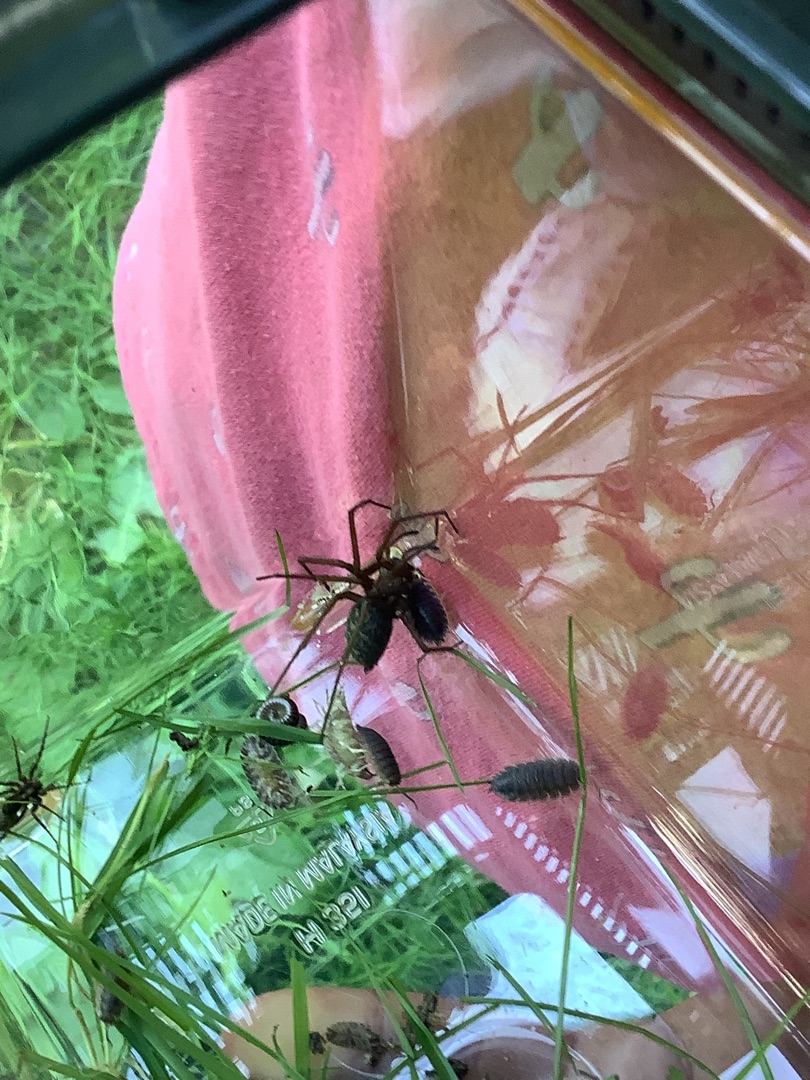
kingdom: Animalia
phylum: Arthropoda
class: Arachnida
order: Araneae
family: Agelenidae
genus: Eratigena
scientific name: Eratigena atrica
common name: Stor husedderkop
